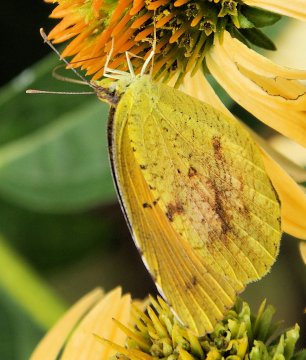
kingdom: Animalia
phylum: Arthropoda
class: Insecta
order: Lepidoptera
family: Pieridae
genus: Abaeis
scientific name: Abaeis nicippe
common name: Sleepy Orange
